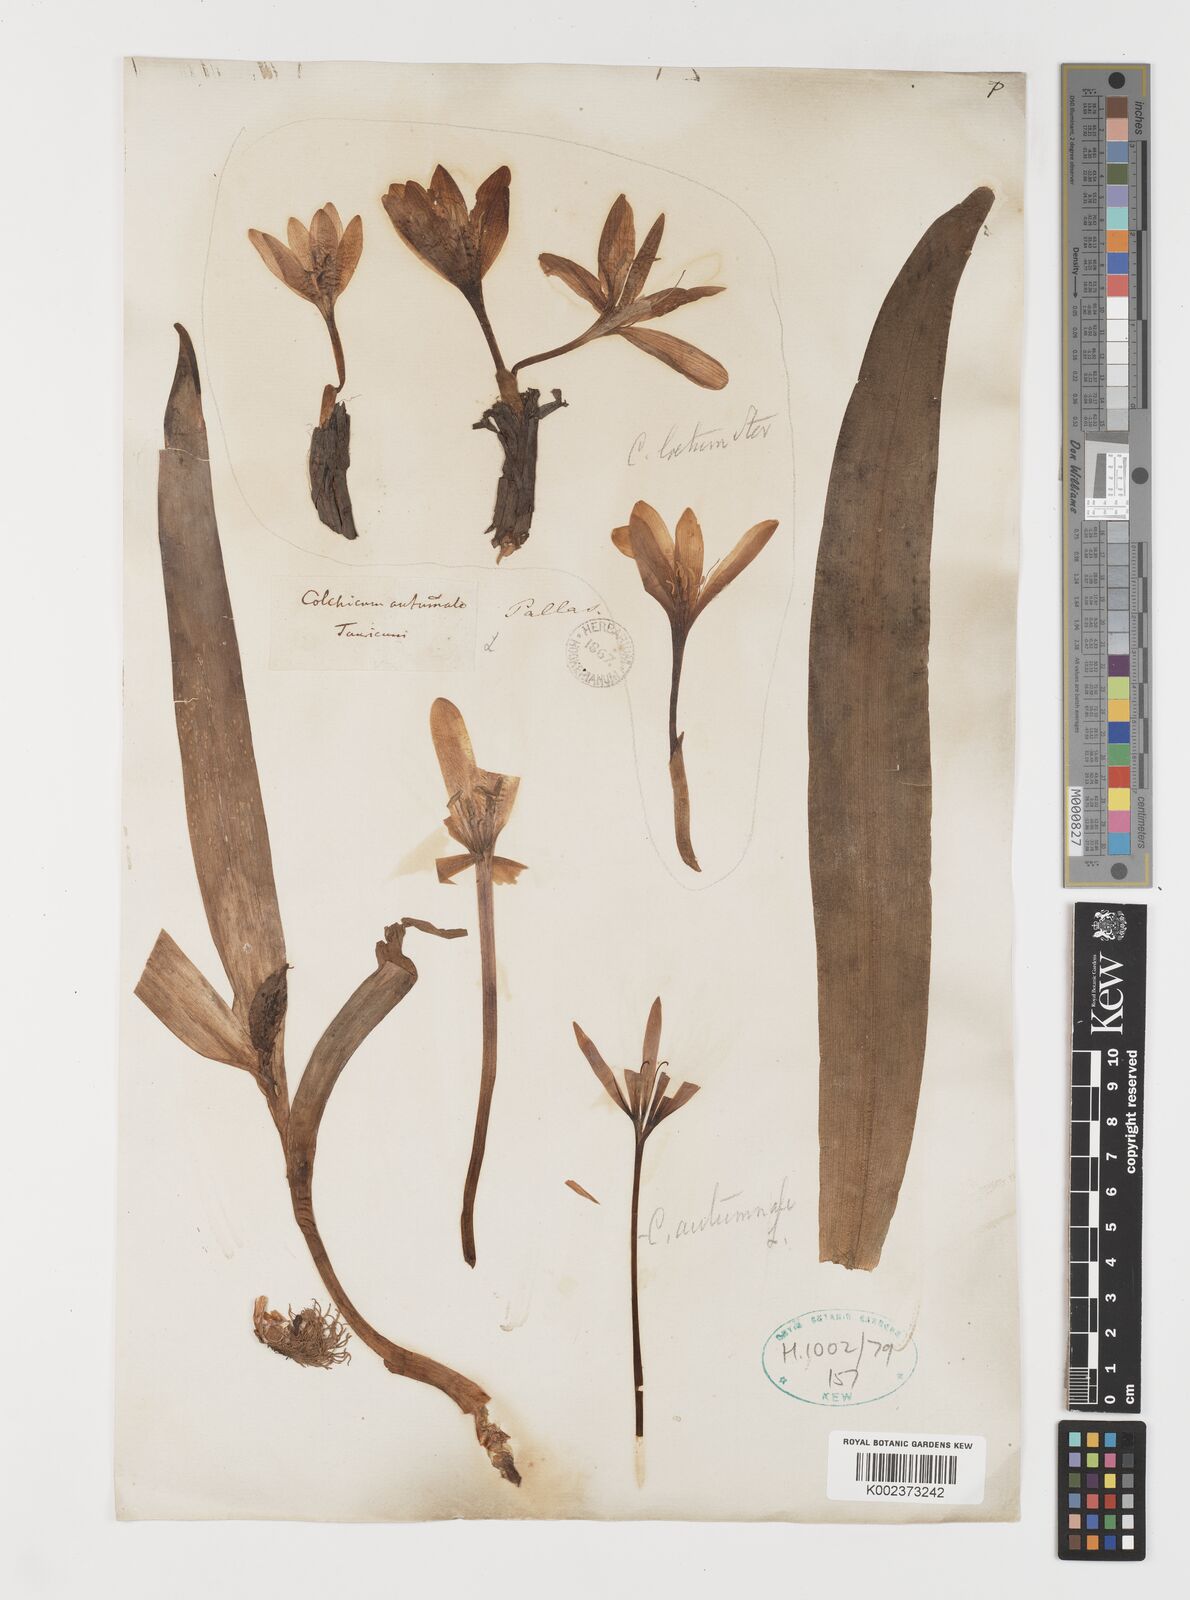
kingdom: Plantae
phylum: Tracheophyta
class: Liliopsida
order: Liliales
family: Colchicaceae
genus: Colchicum
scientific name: Colchicum autumnale
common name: Autumn crocus
